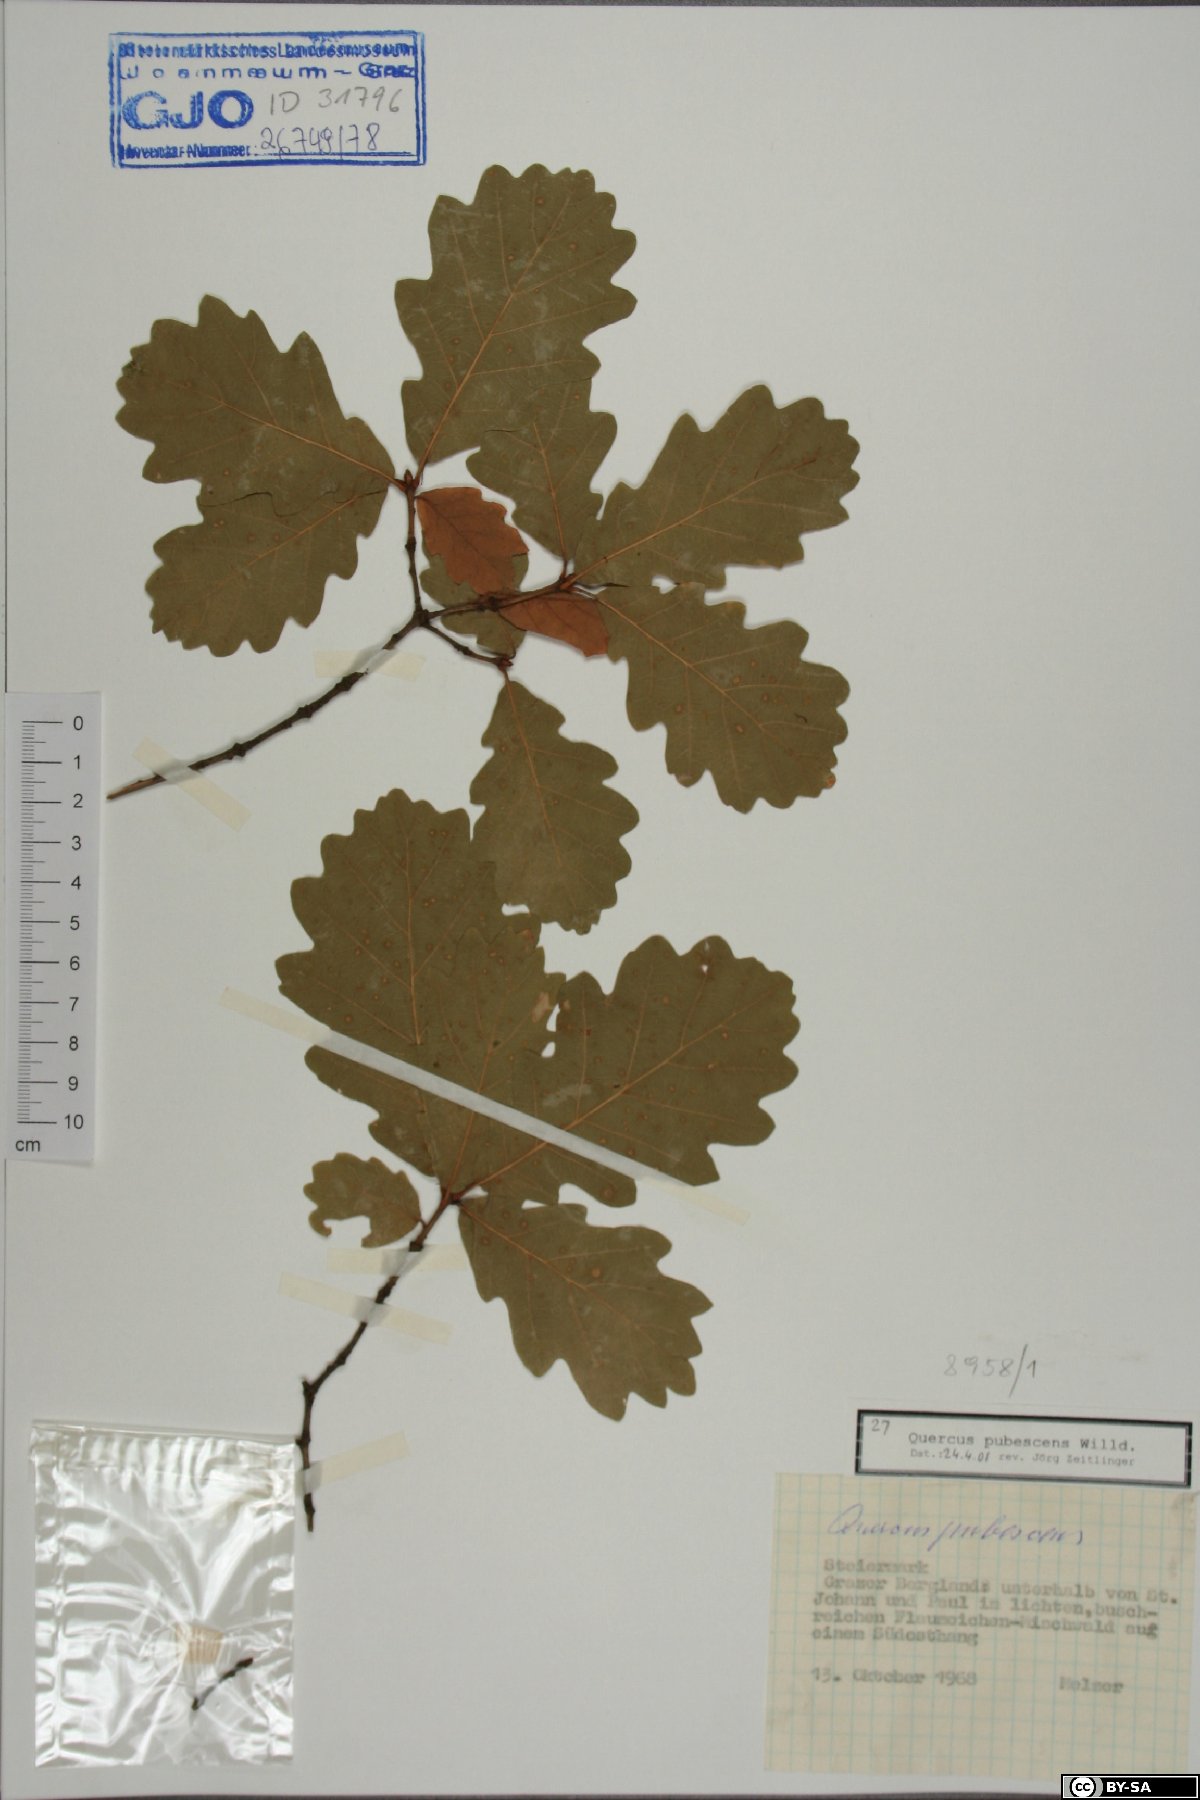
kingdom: Plantae
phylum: Tracheophyta
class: Magnoliopsida
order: Fagales
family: Fagaceae
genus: Quercus
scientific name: Quercus pubescens
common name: Downy oak
